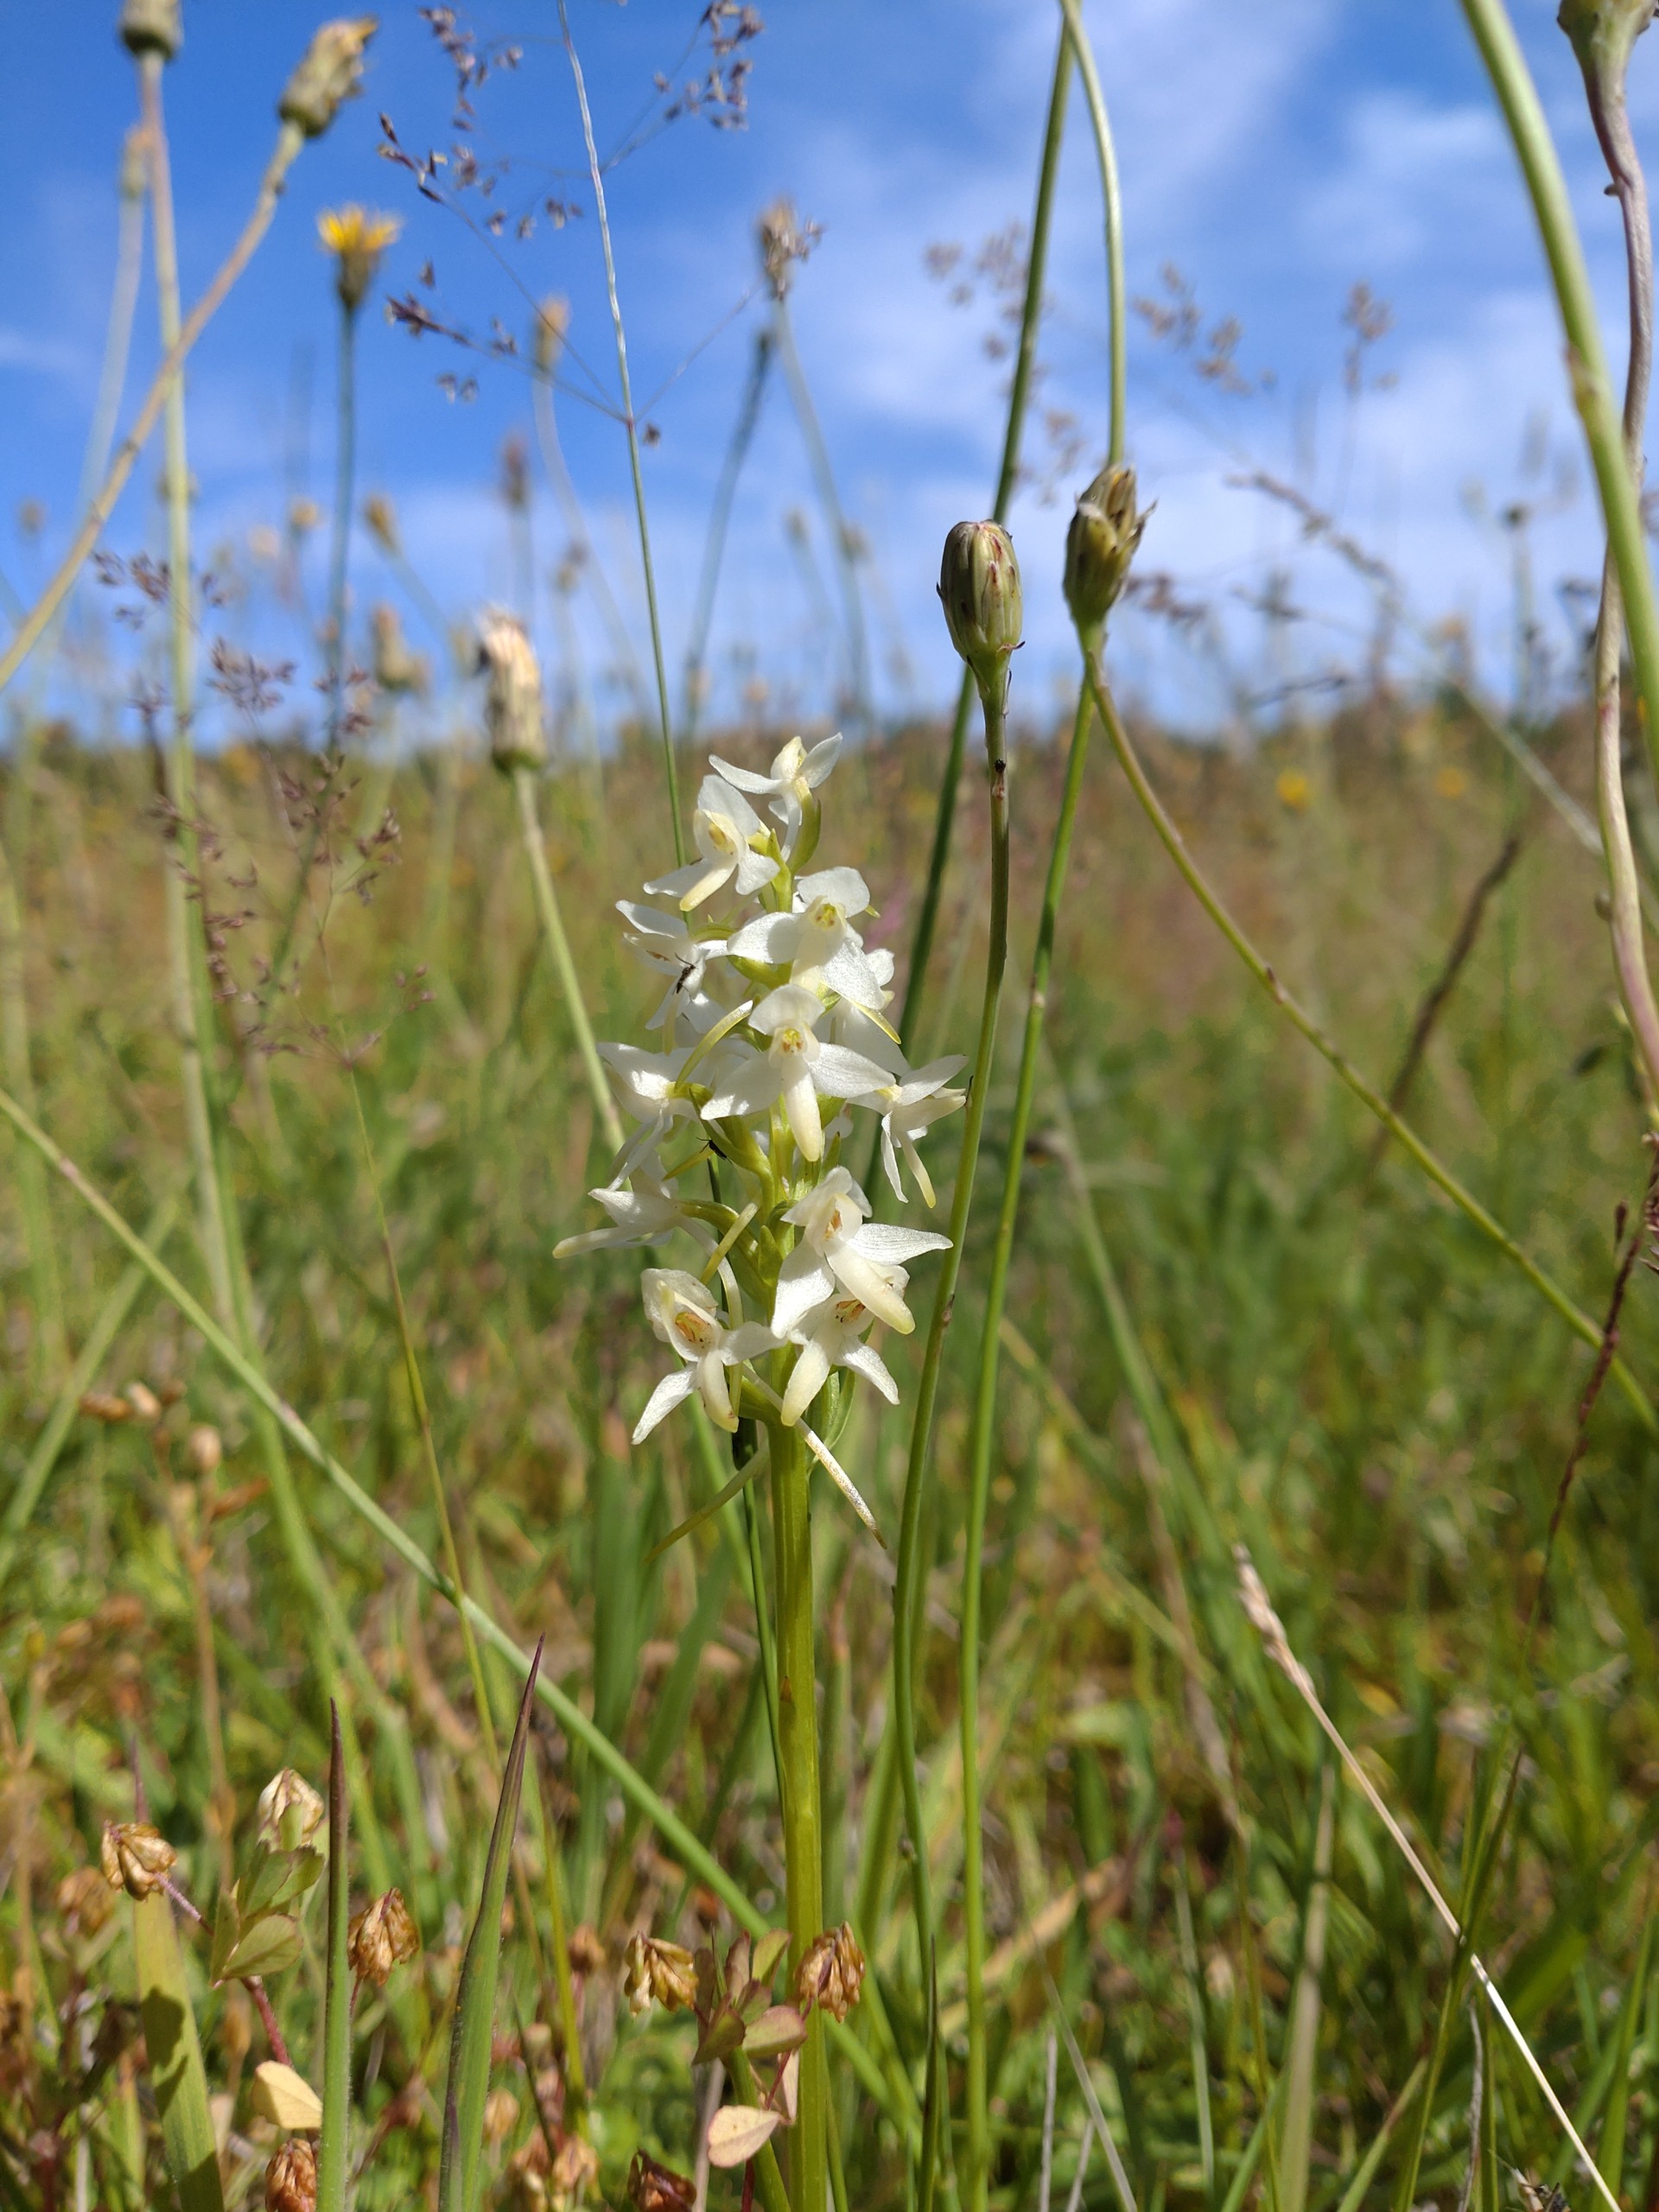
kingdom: Plantae
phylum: Tracheophyta
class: Liliopsida
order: Asparagales
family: Orchidaceae
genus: Platanthera
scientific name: Platanthera bifolia
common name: Bakke-gøgelilje
